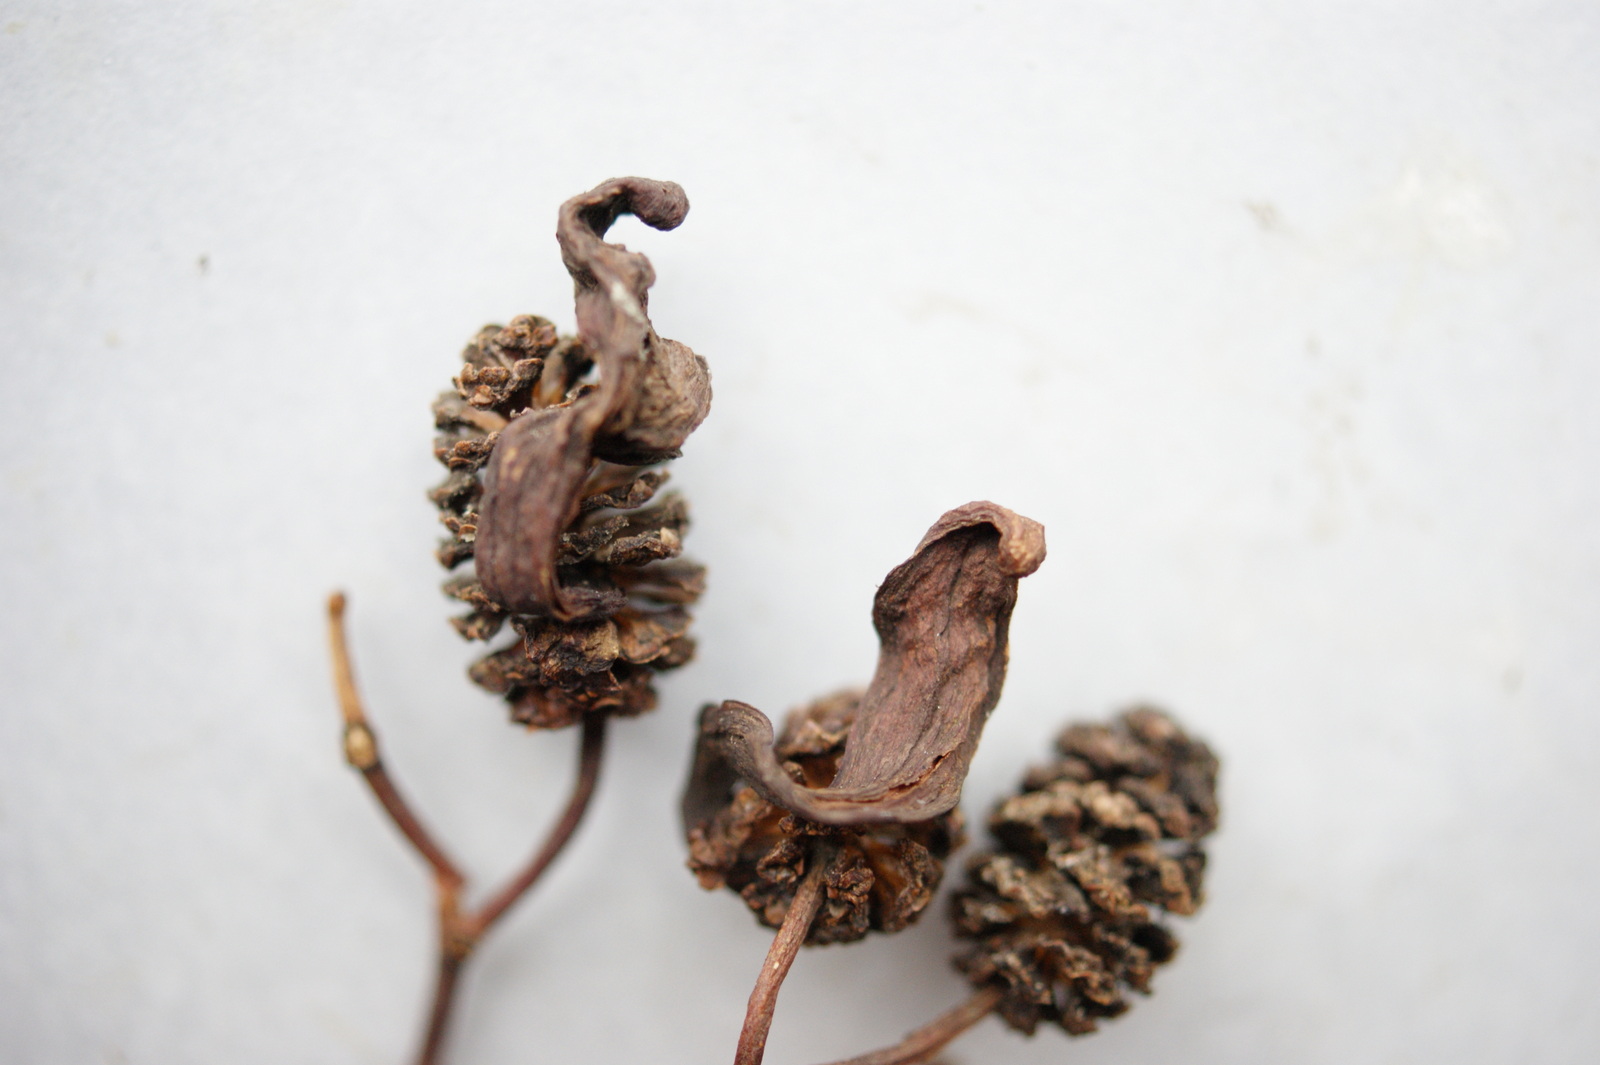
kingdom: Fungi
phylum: Ascomycota
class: Taphrinomycetes
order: Taphrinales
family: Taphrinaceae
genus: Taphrina
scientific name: Taphrina alni
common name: Alder tongue
